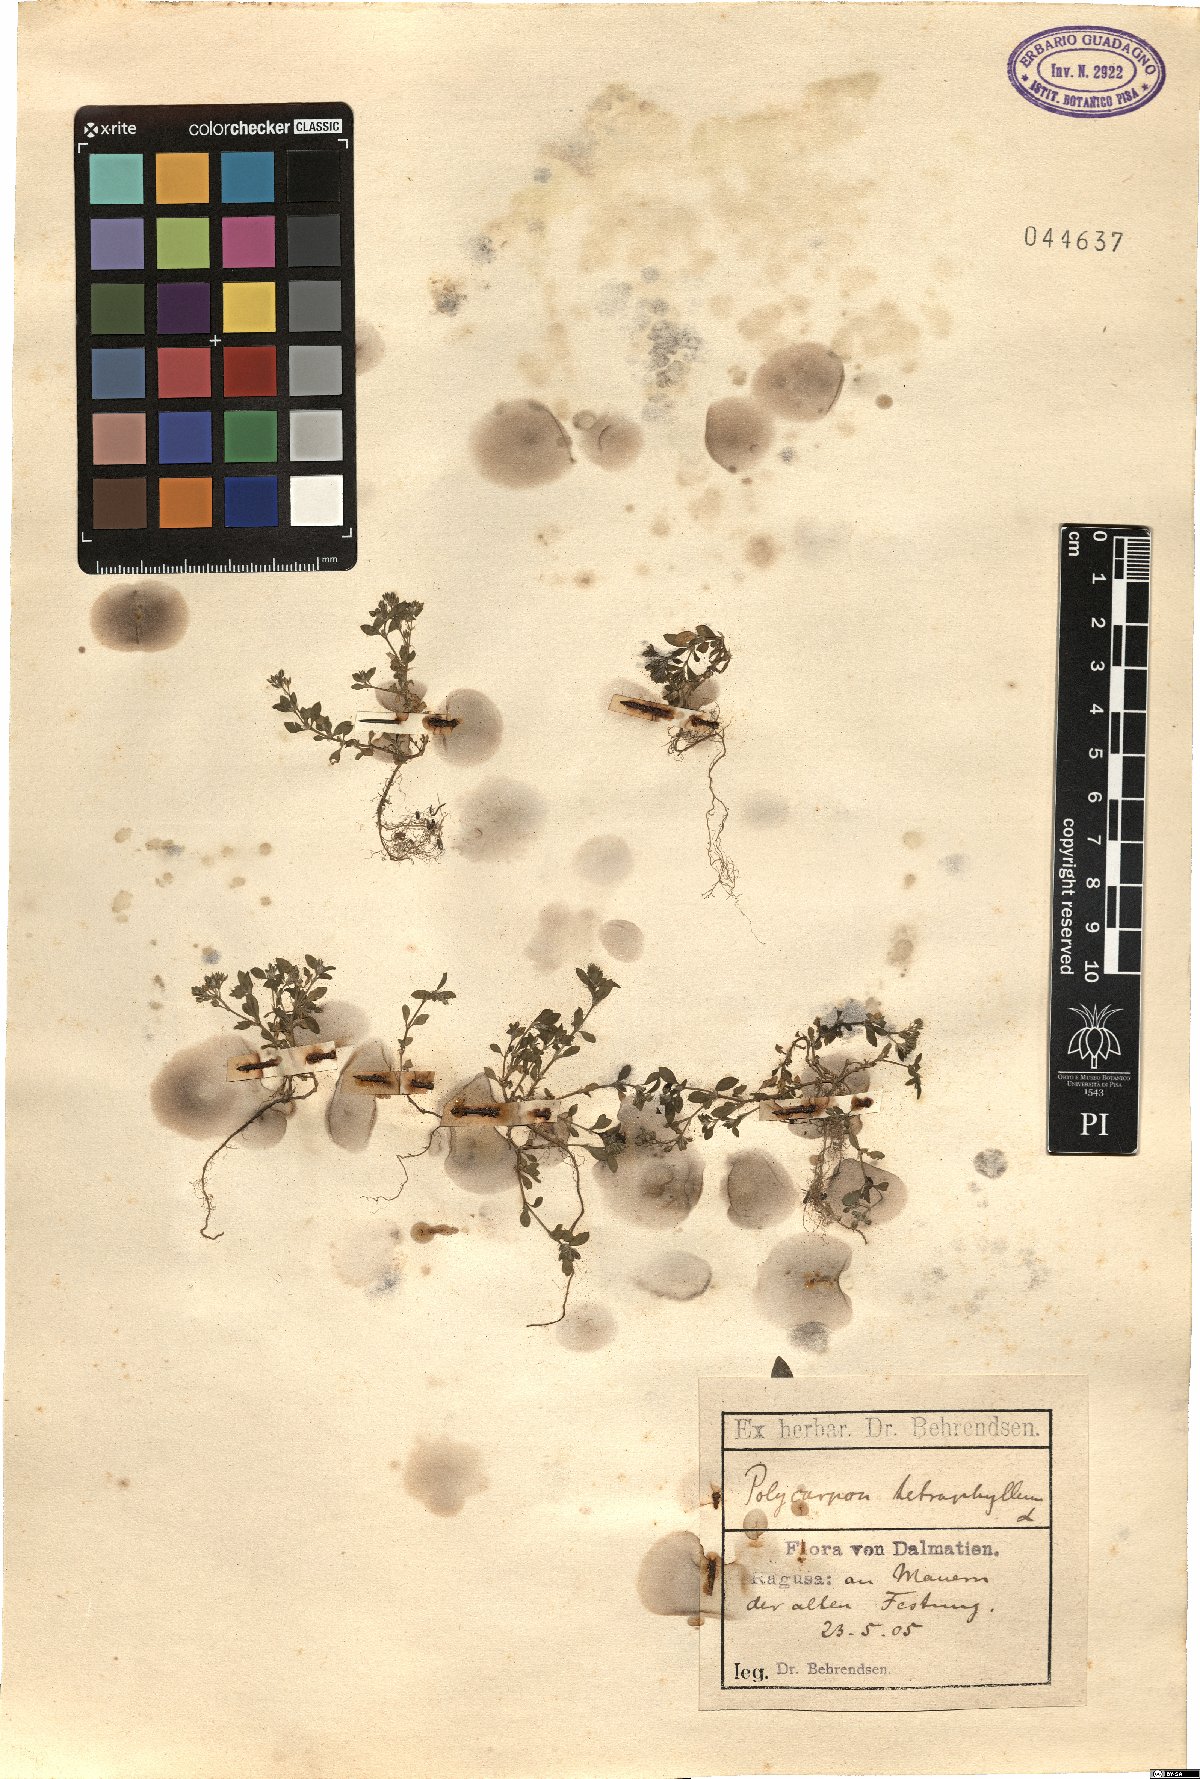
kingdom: Plantae
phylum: Tracheophyta
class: Magnoliopsida
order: Caryophyllales
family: Caryophyllaceae
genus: Polycarpon
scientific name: Polycarpon tetraphyllum
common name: Four-leaved all-seed
